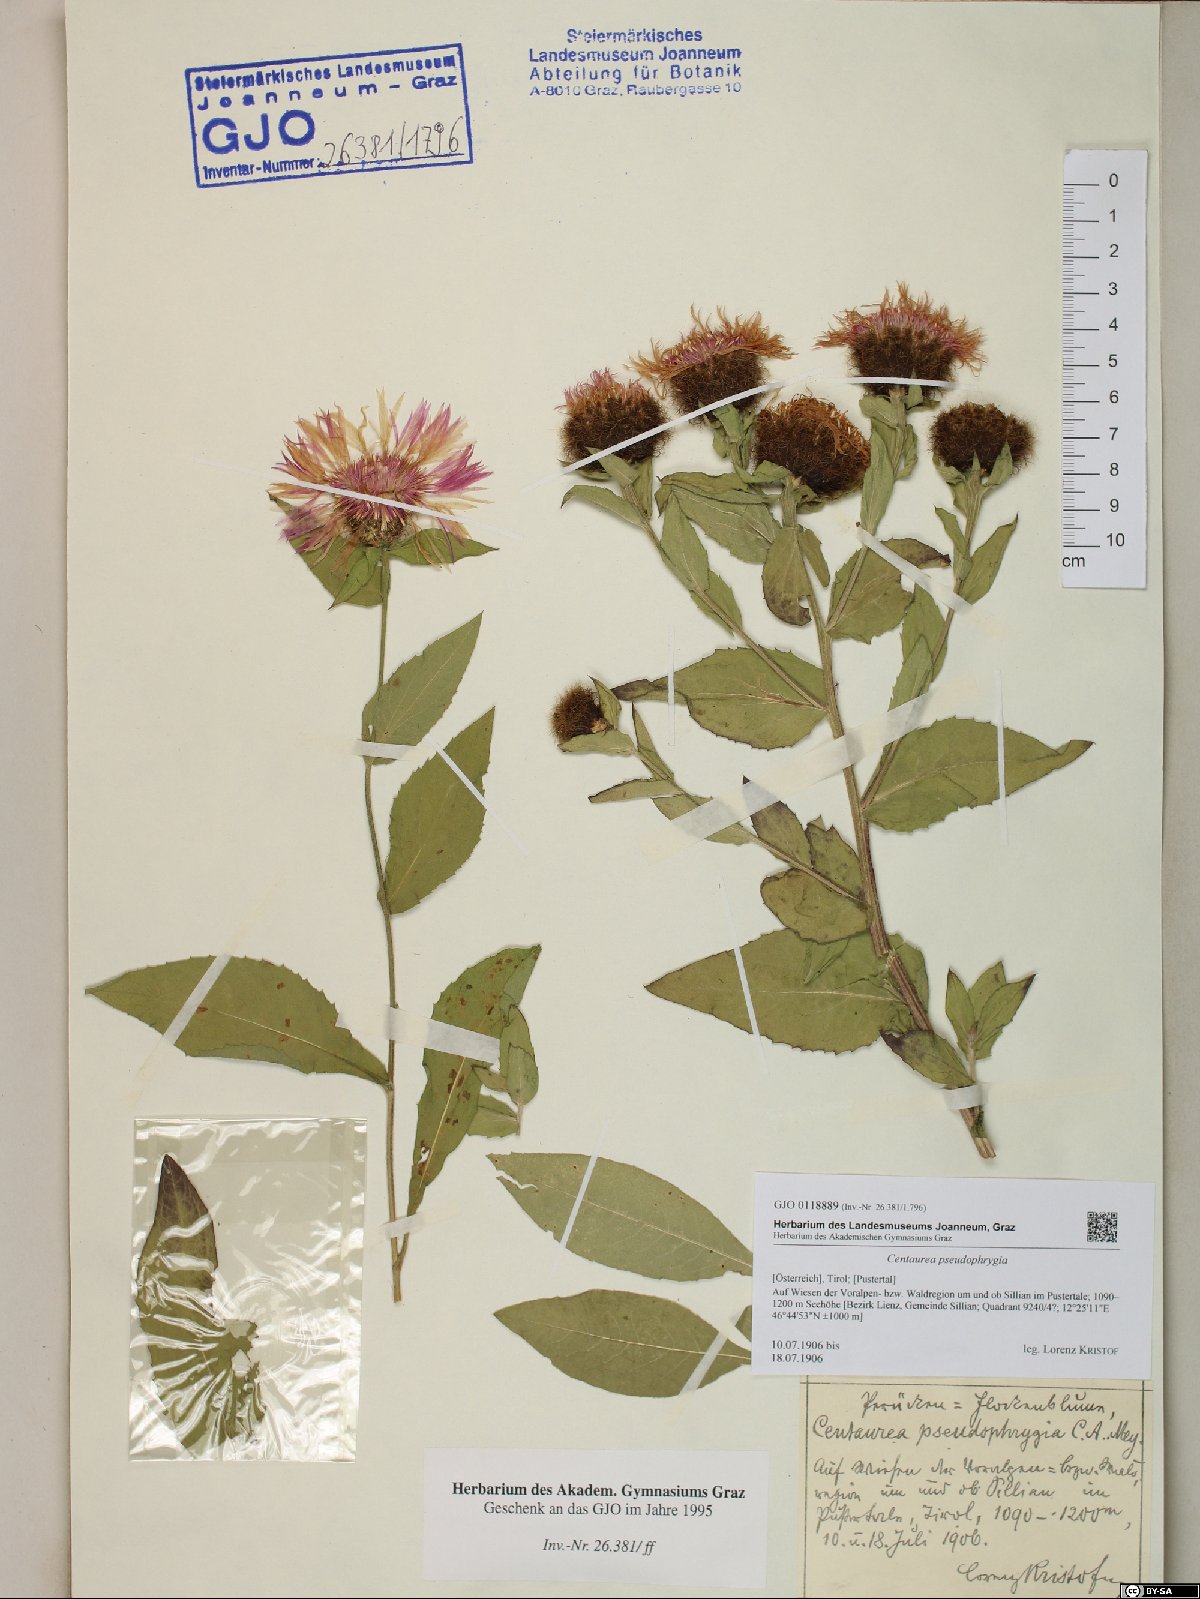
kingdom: Plantae
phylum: Tracheophyta
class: Magnoliopsida
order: Asterales
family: Asteraceae
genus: Centaurea
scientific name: Centaurea pseudophrygia
